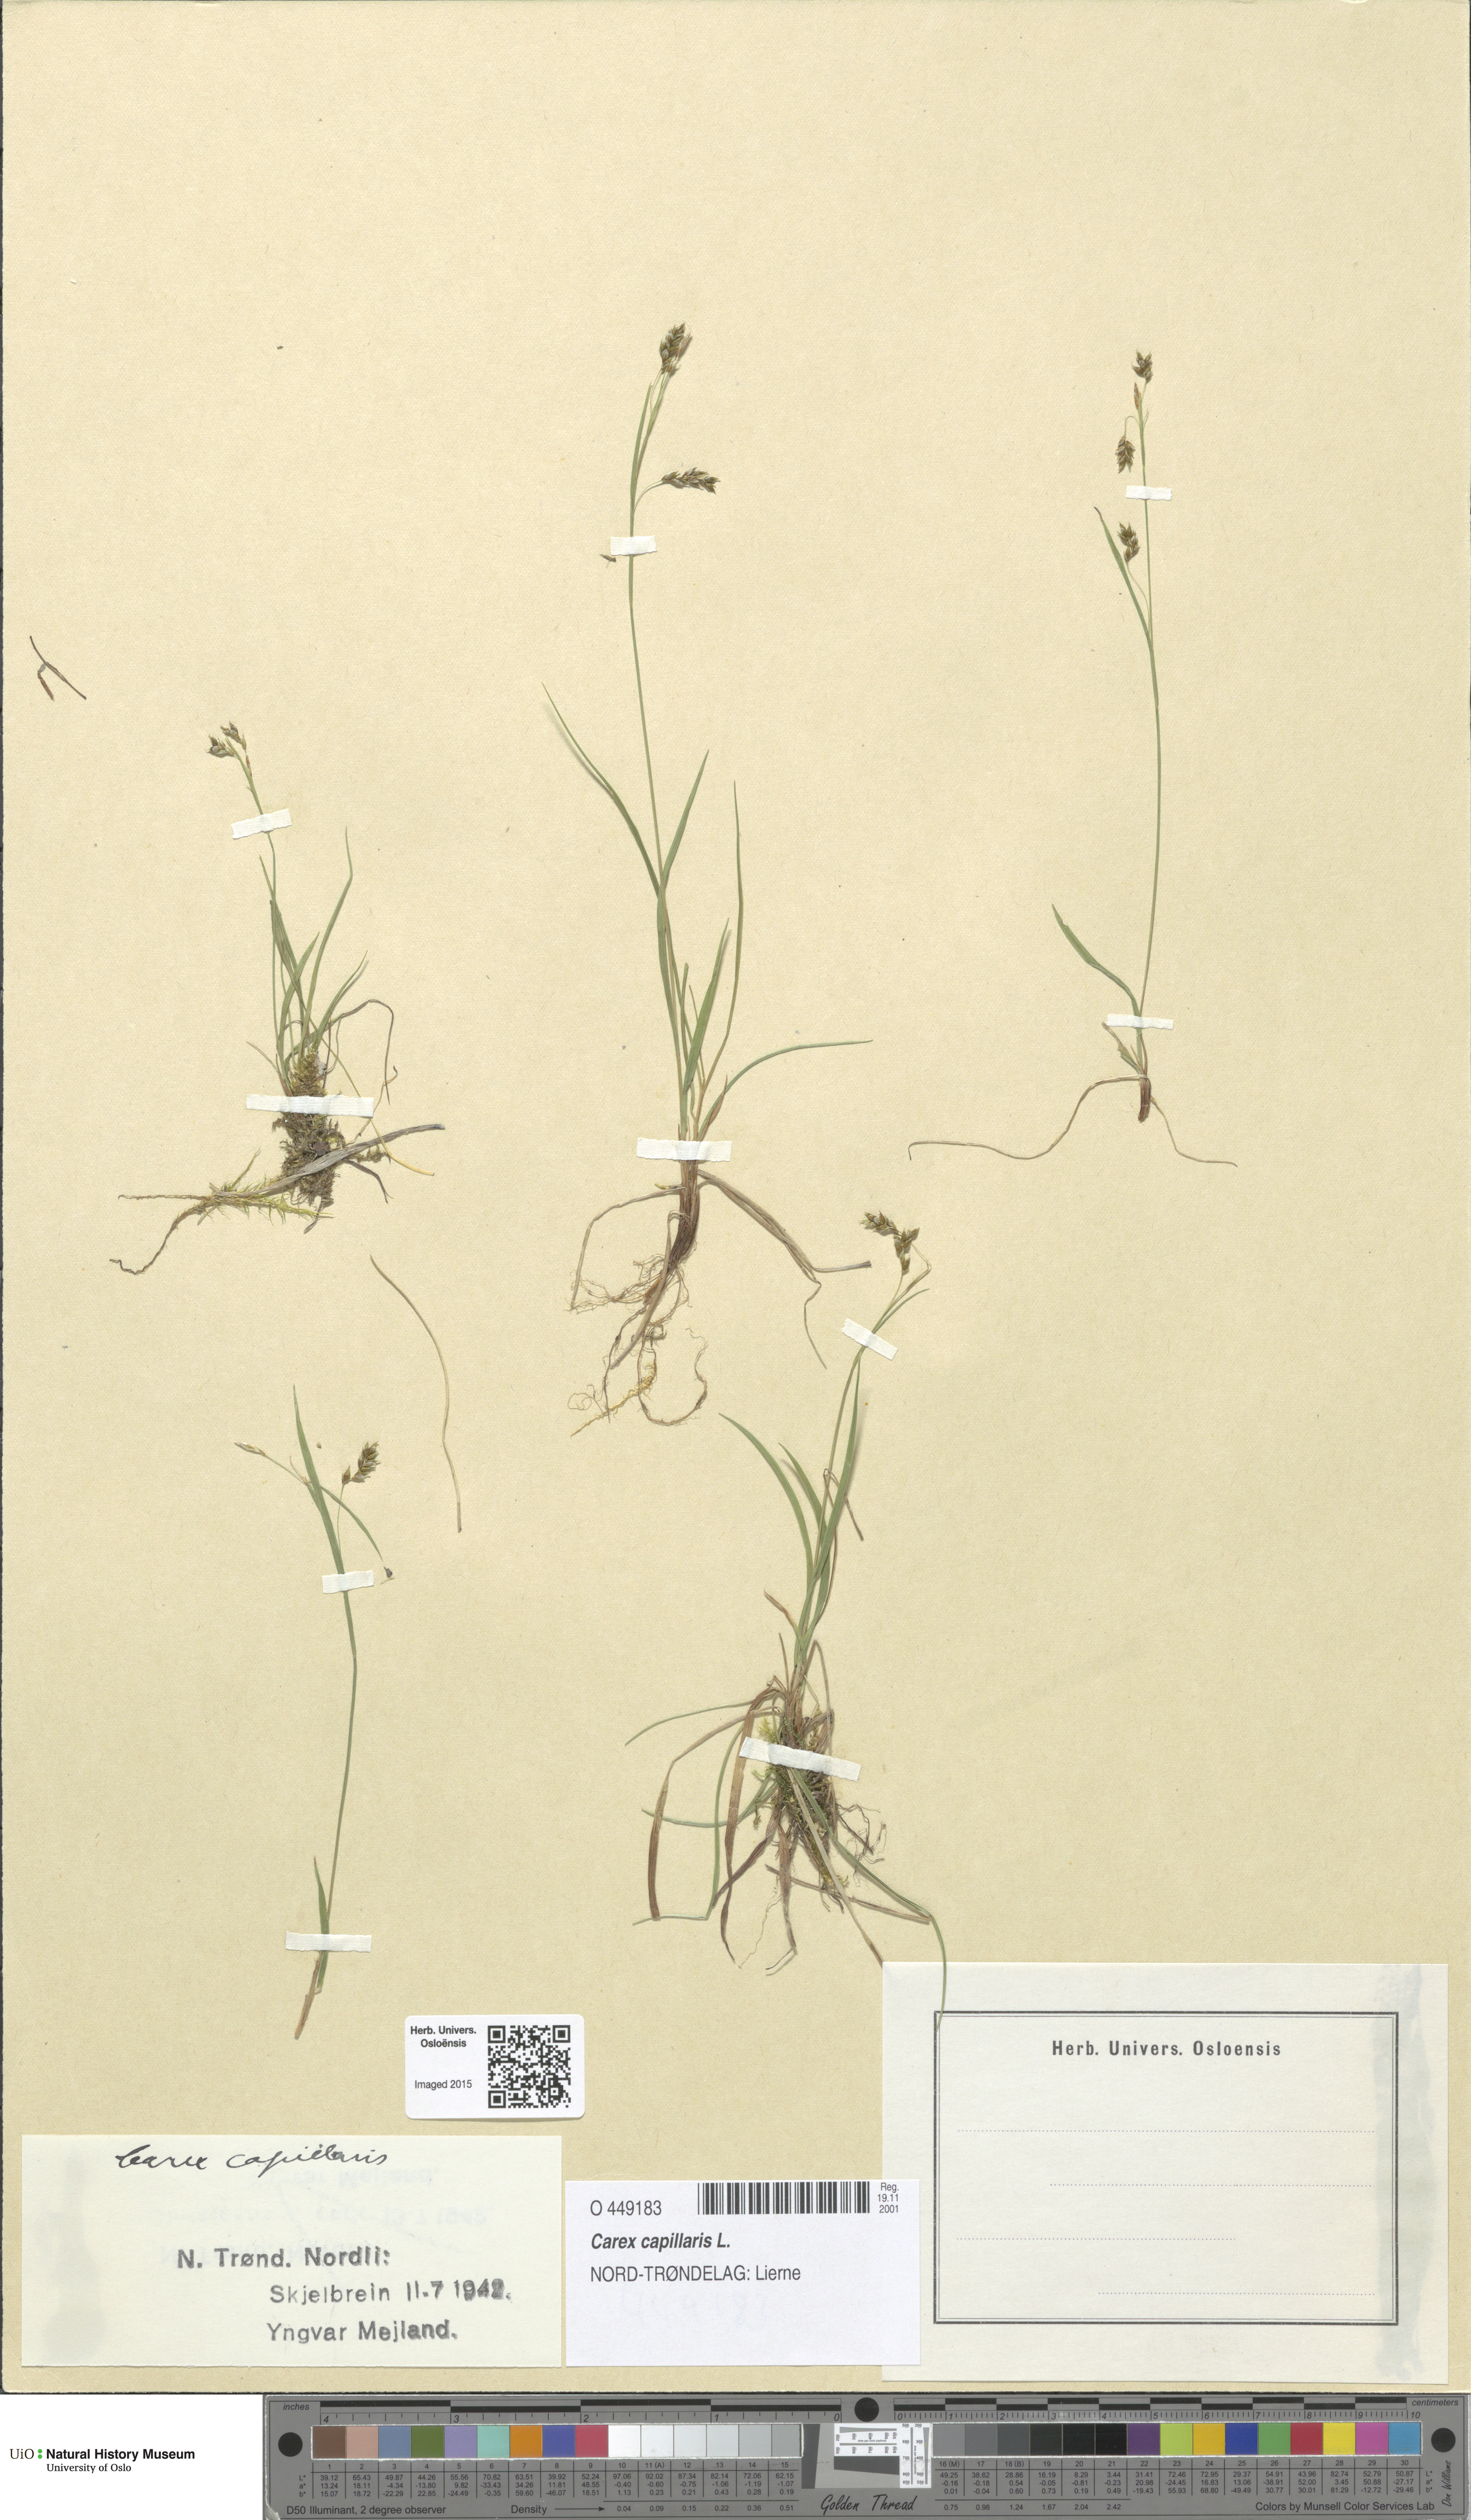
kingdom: Plantae
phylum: Tracheophyta
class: Liliopsida
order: Poales
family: Cyperaceae
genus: Carex
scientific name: Carex capillaris
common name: Hair sedge
